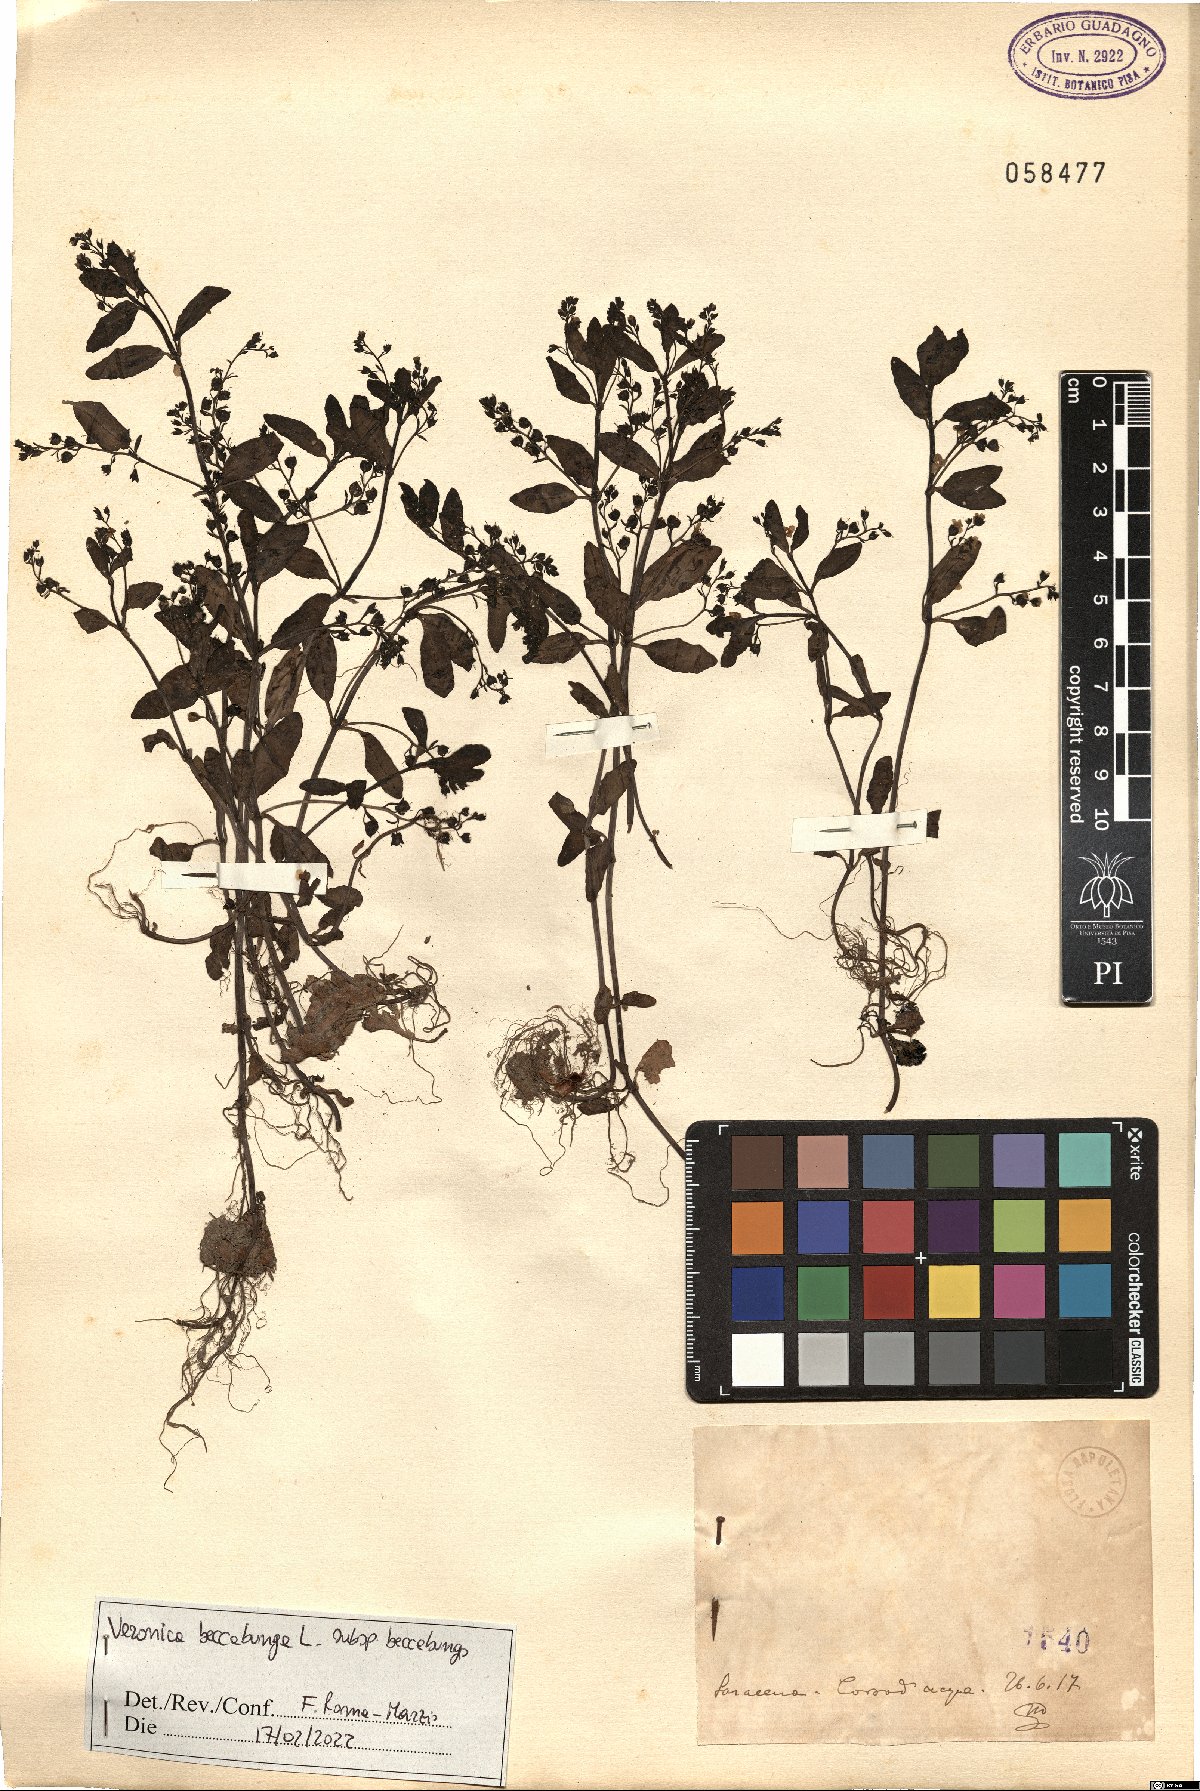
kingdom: Plantae
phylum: Tracheophyta
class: Magnoliopsida
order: Lamiales
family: Plantaginaceae
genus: Veronica
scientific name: Veronica beccabunga
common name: Brooklime
